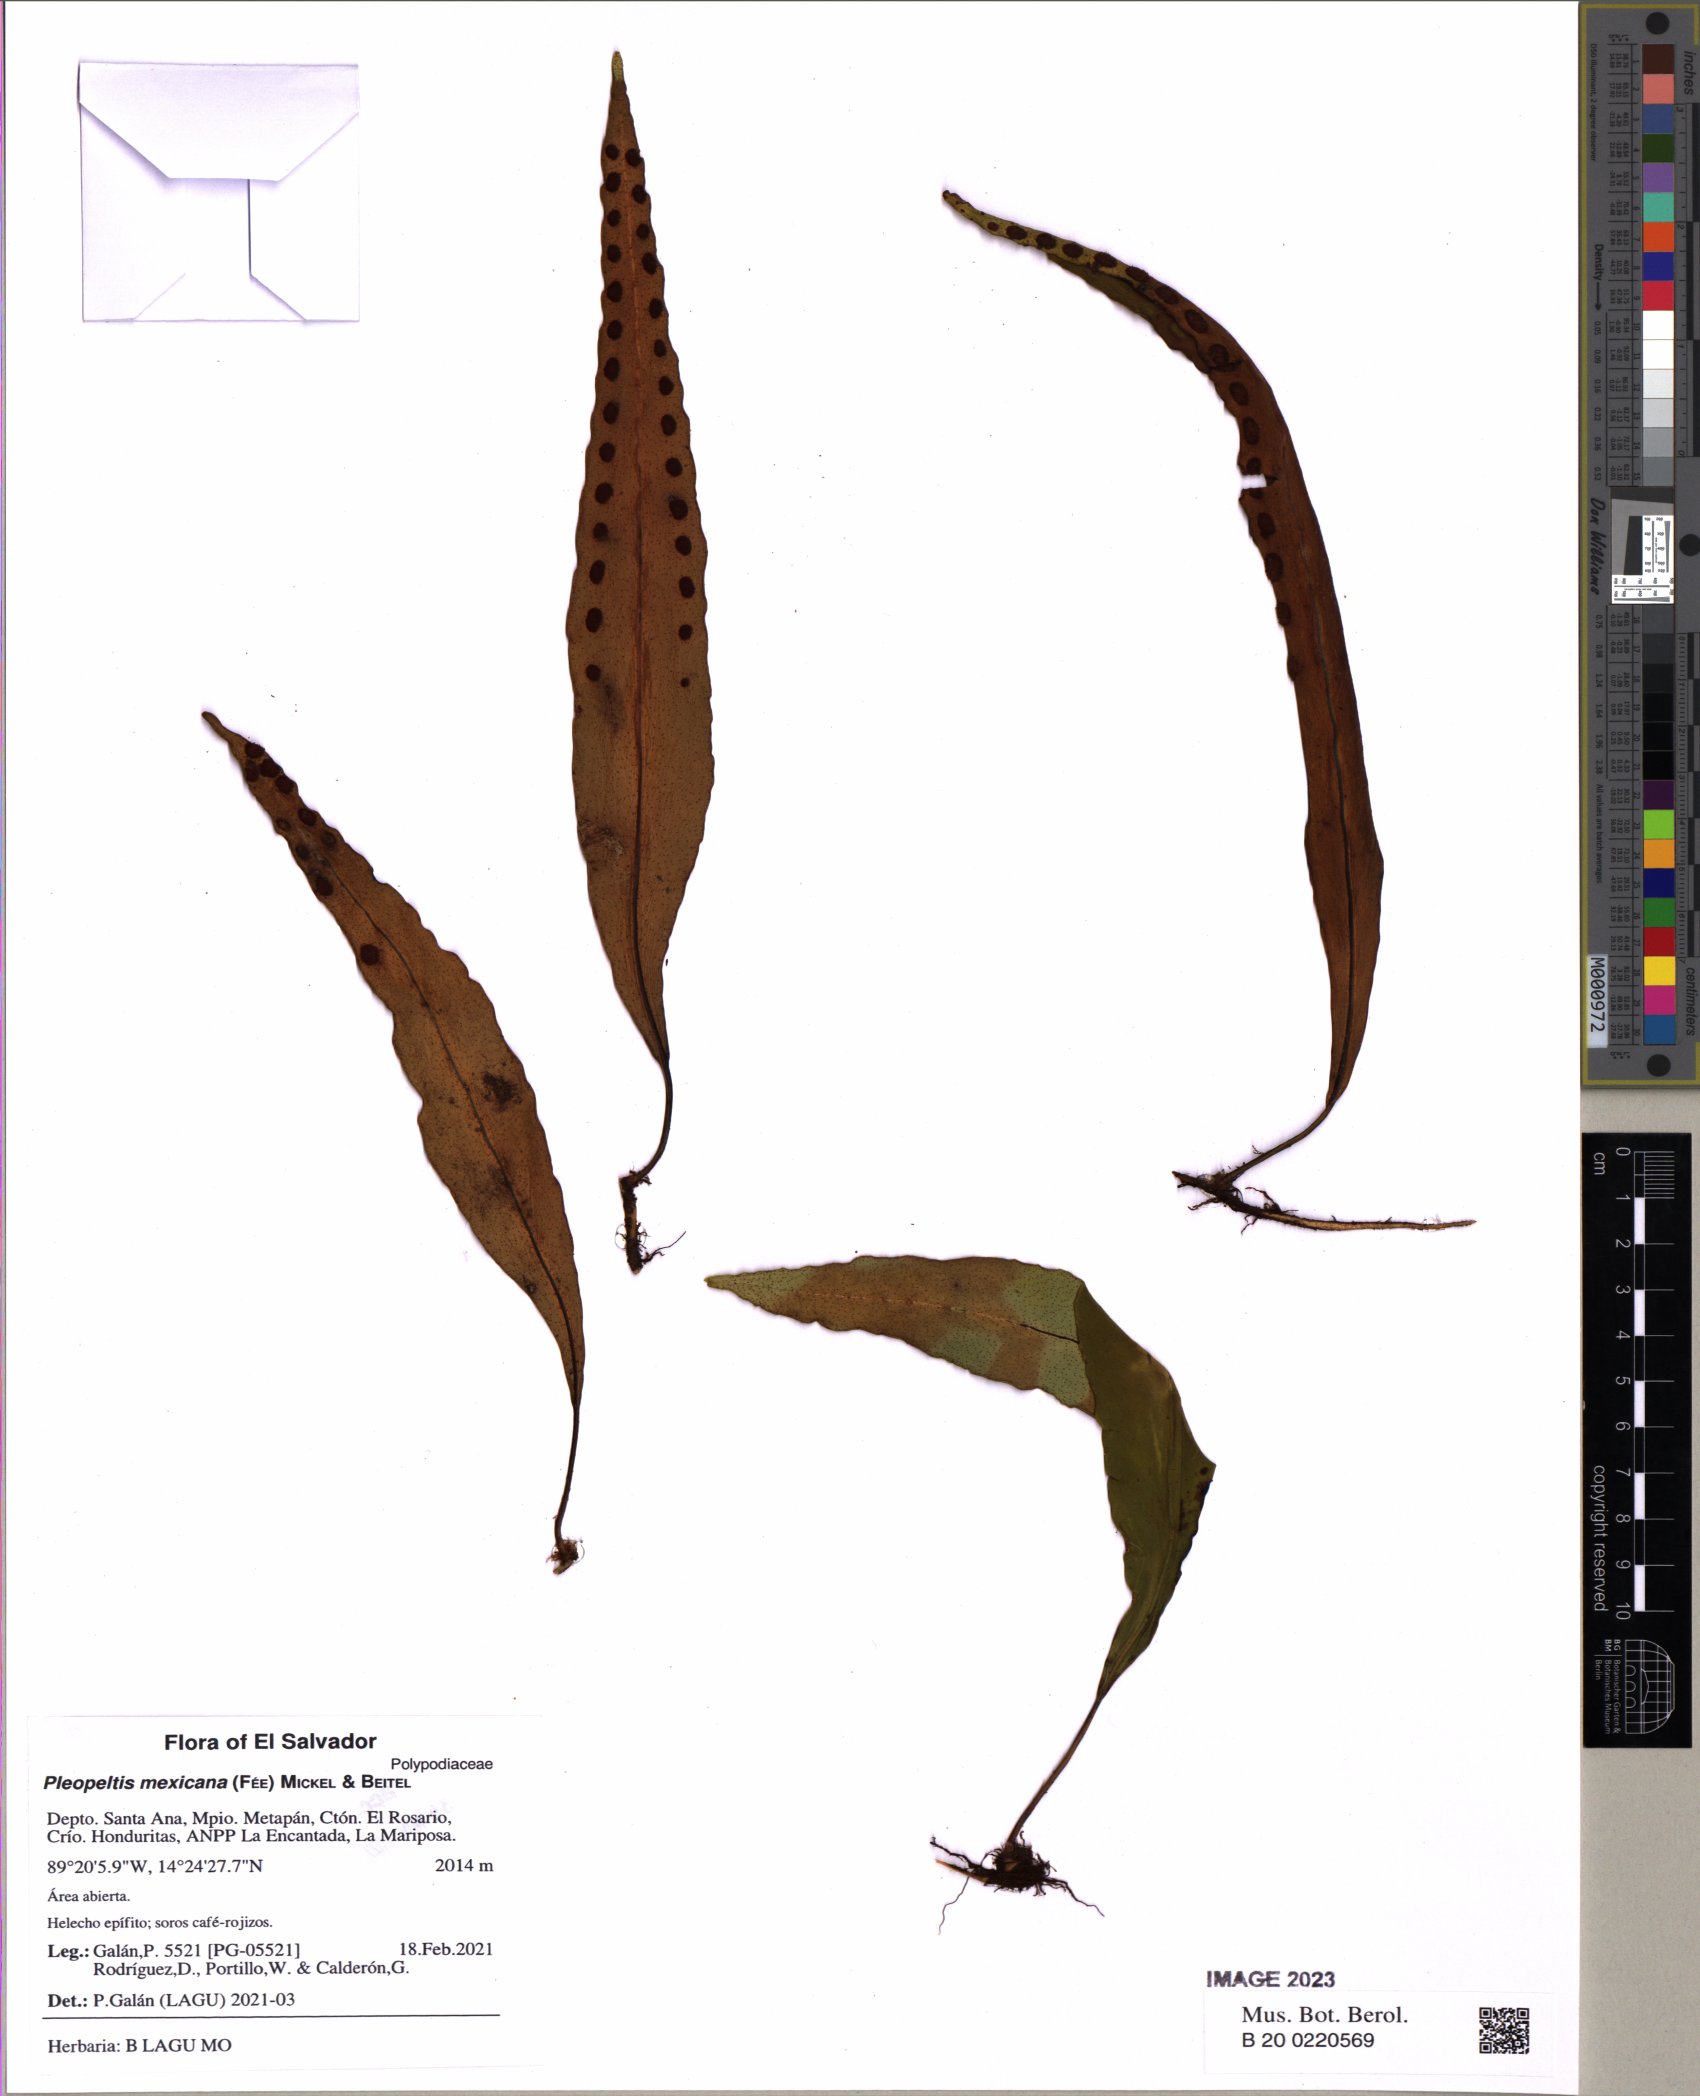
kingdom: Plantae
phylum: Tracheophyta
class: Polypodiopsida
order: Polypodiales
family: Polypodiaceae
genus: Pleopeltis
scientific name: Pleopeltis mexicana
